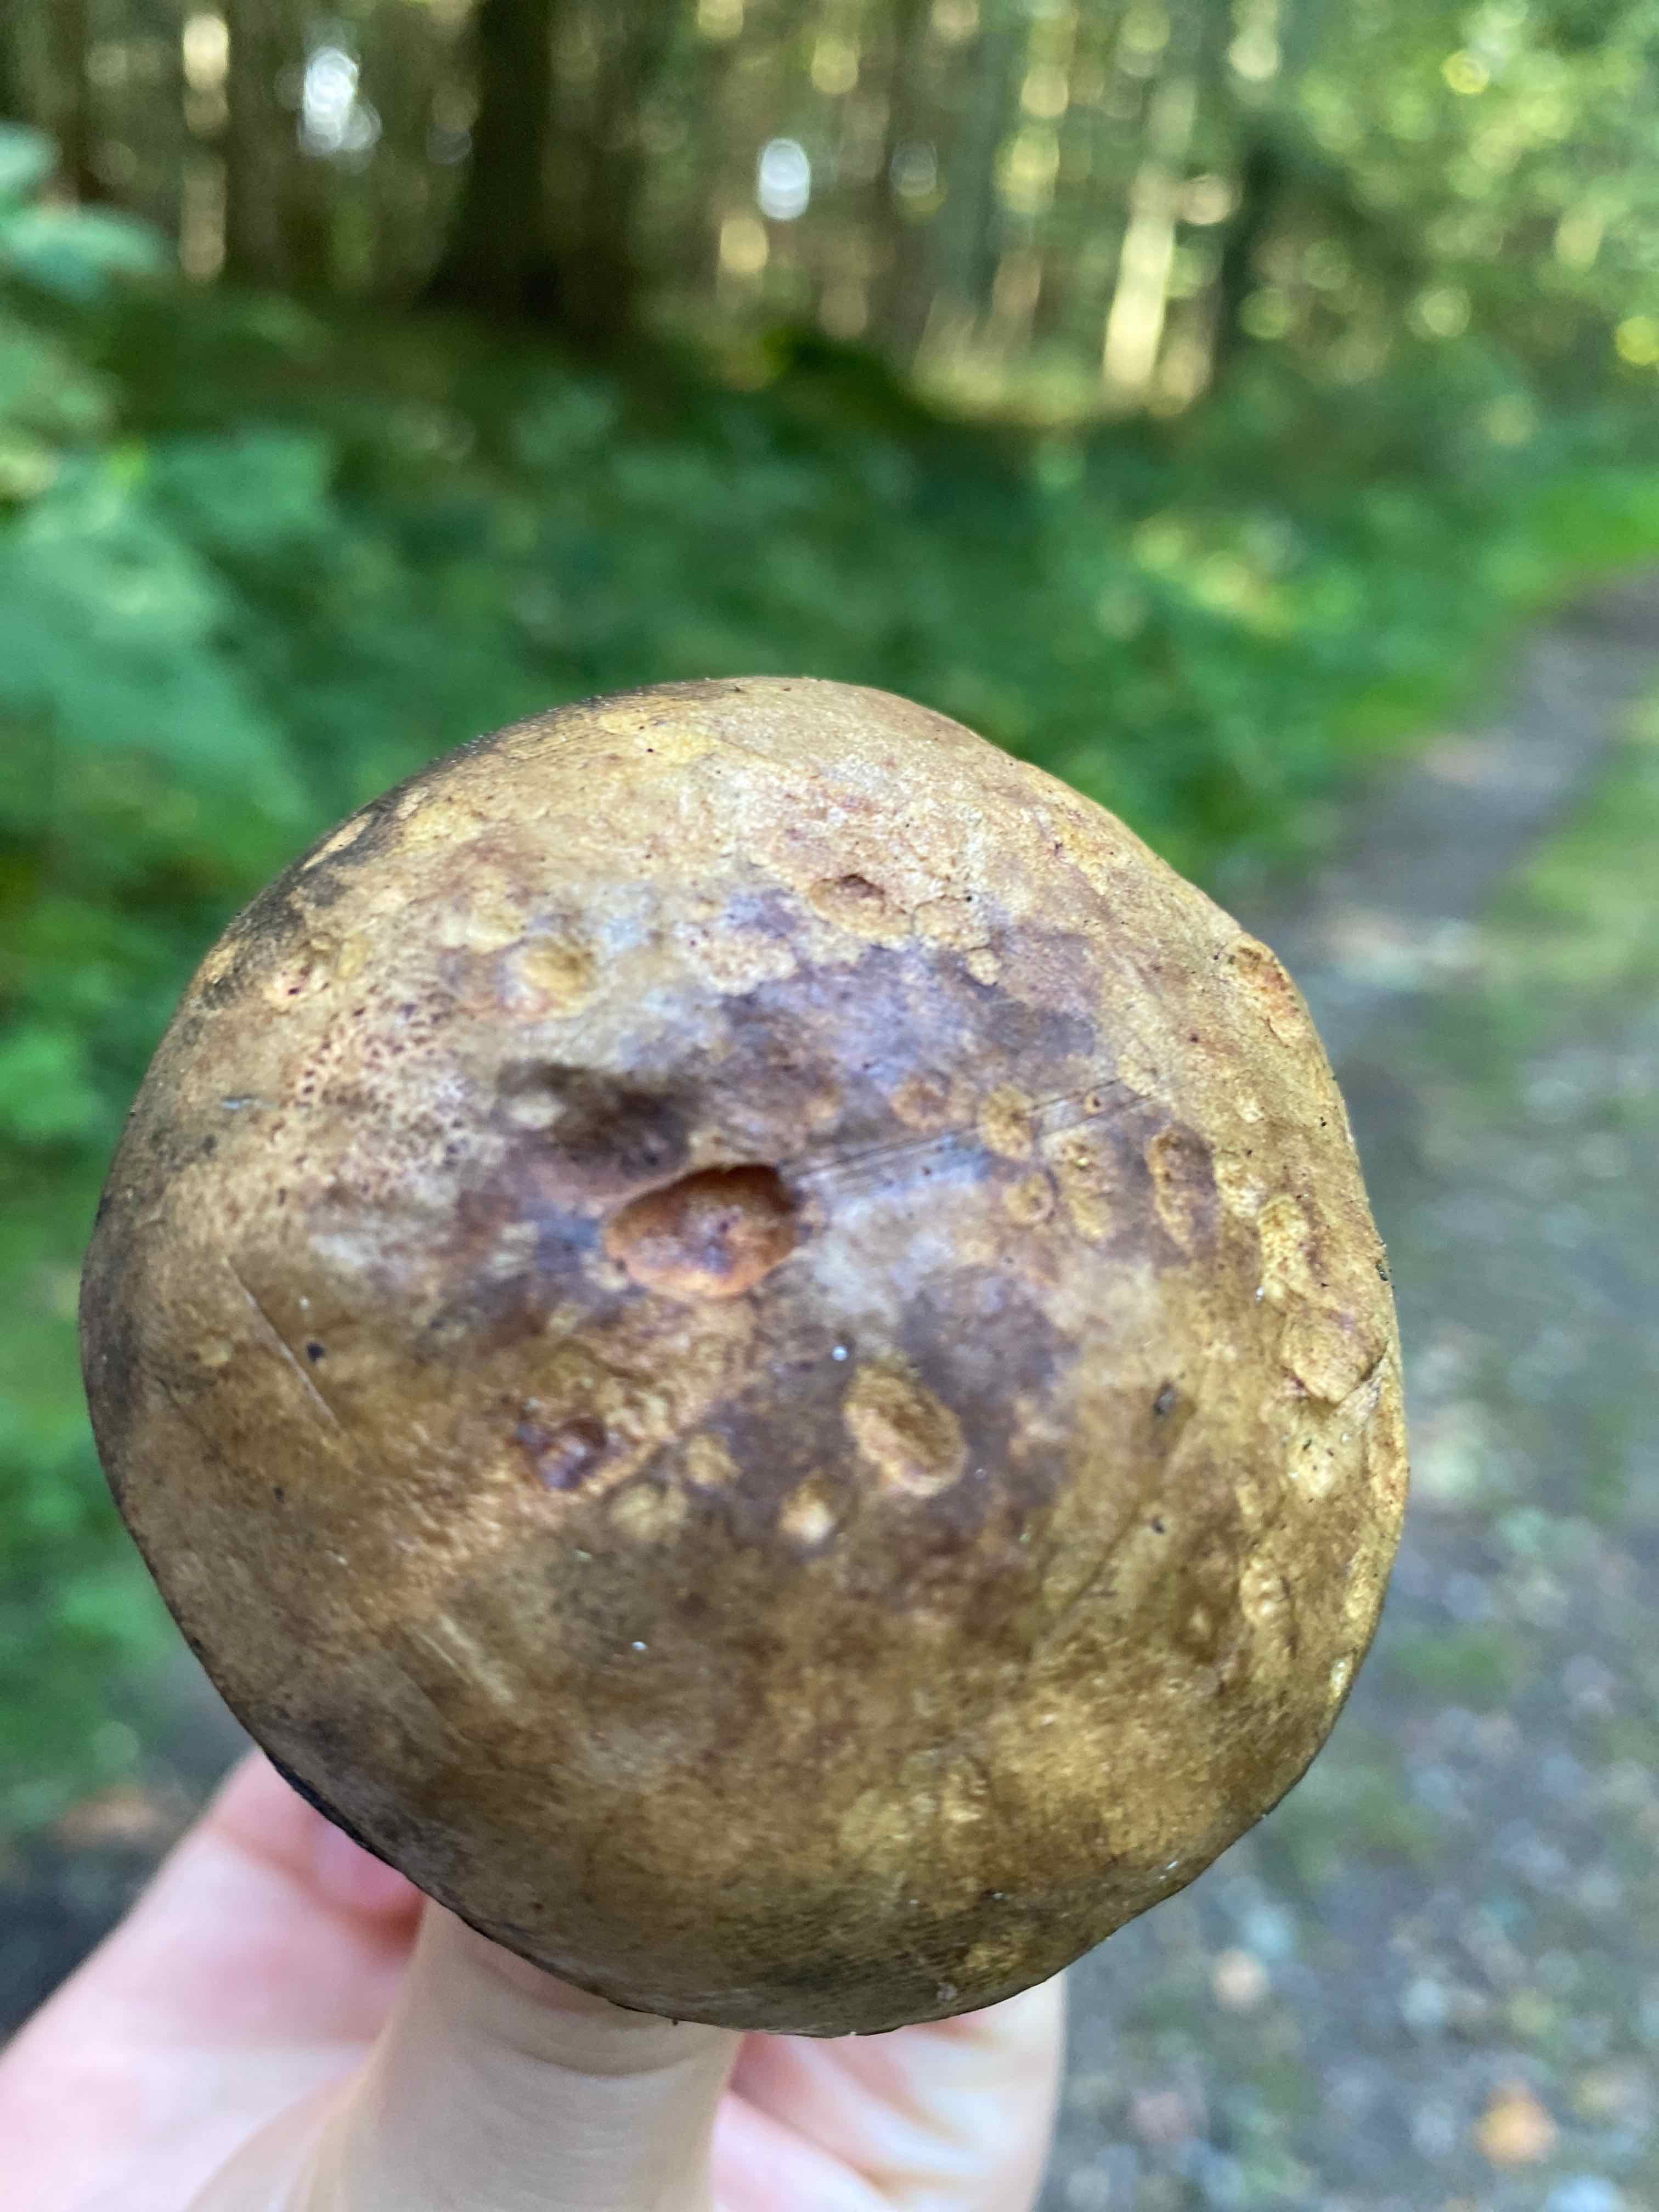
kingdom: Fungi
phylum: Basidiomycota
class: Agaricomycetes
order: Boletales
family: Boletaceae
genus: Cyanoboletus
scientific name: Cyanoboletus pulverulentus
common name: sortblånende rørhat
